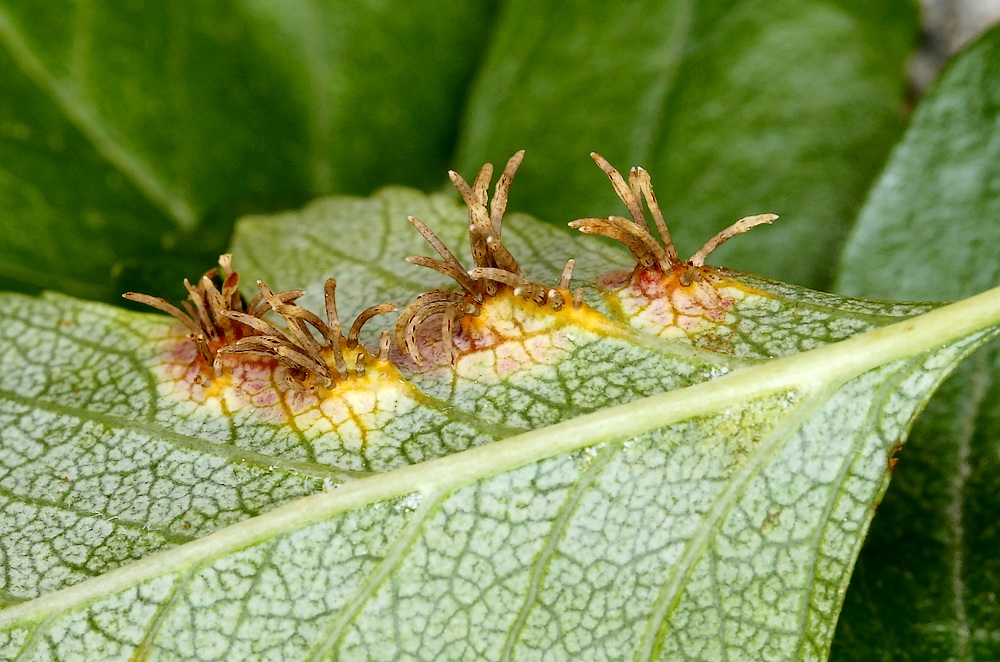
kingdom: Fungi
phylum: Basidiomycota
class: Pucciniomycetes
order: Pucciniales
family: Gymnosporangiaceae
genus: Gymnosporangium
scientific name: Gymnosporangium clavariiforme
